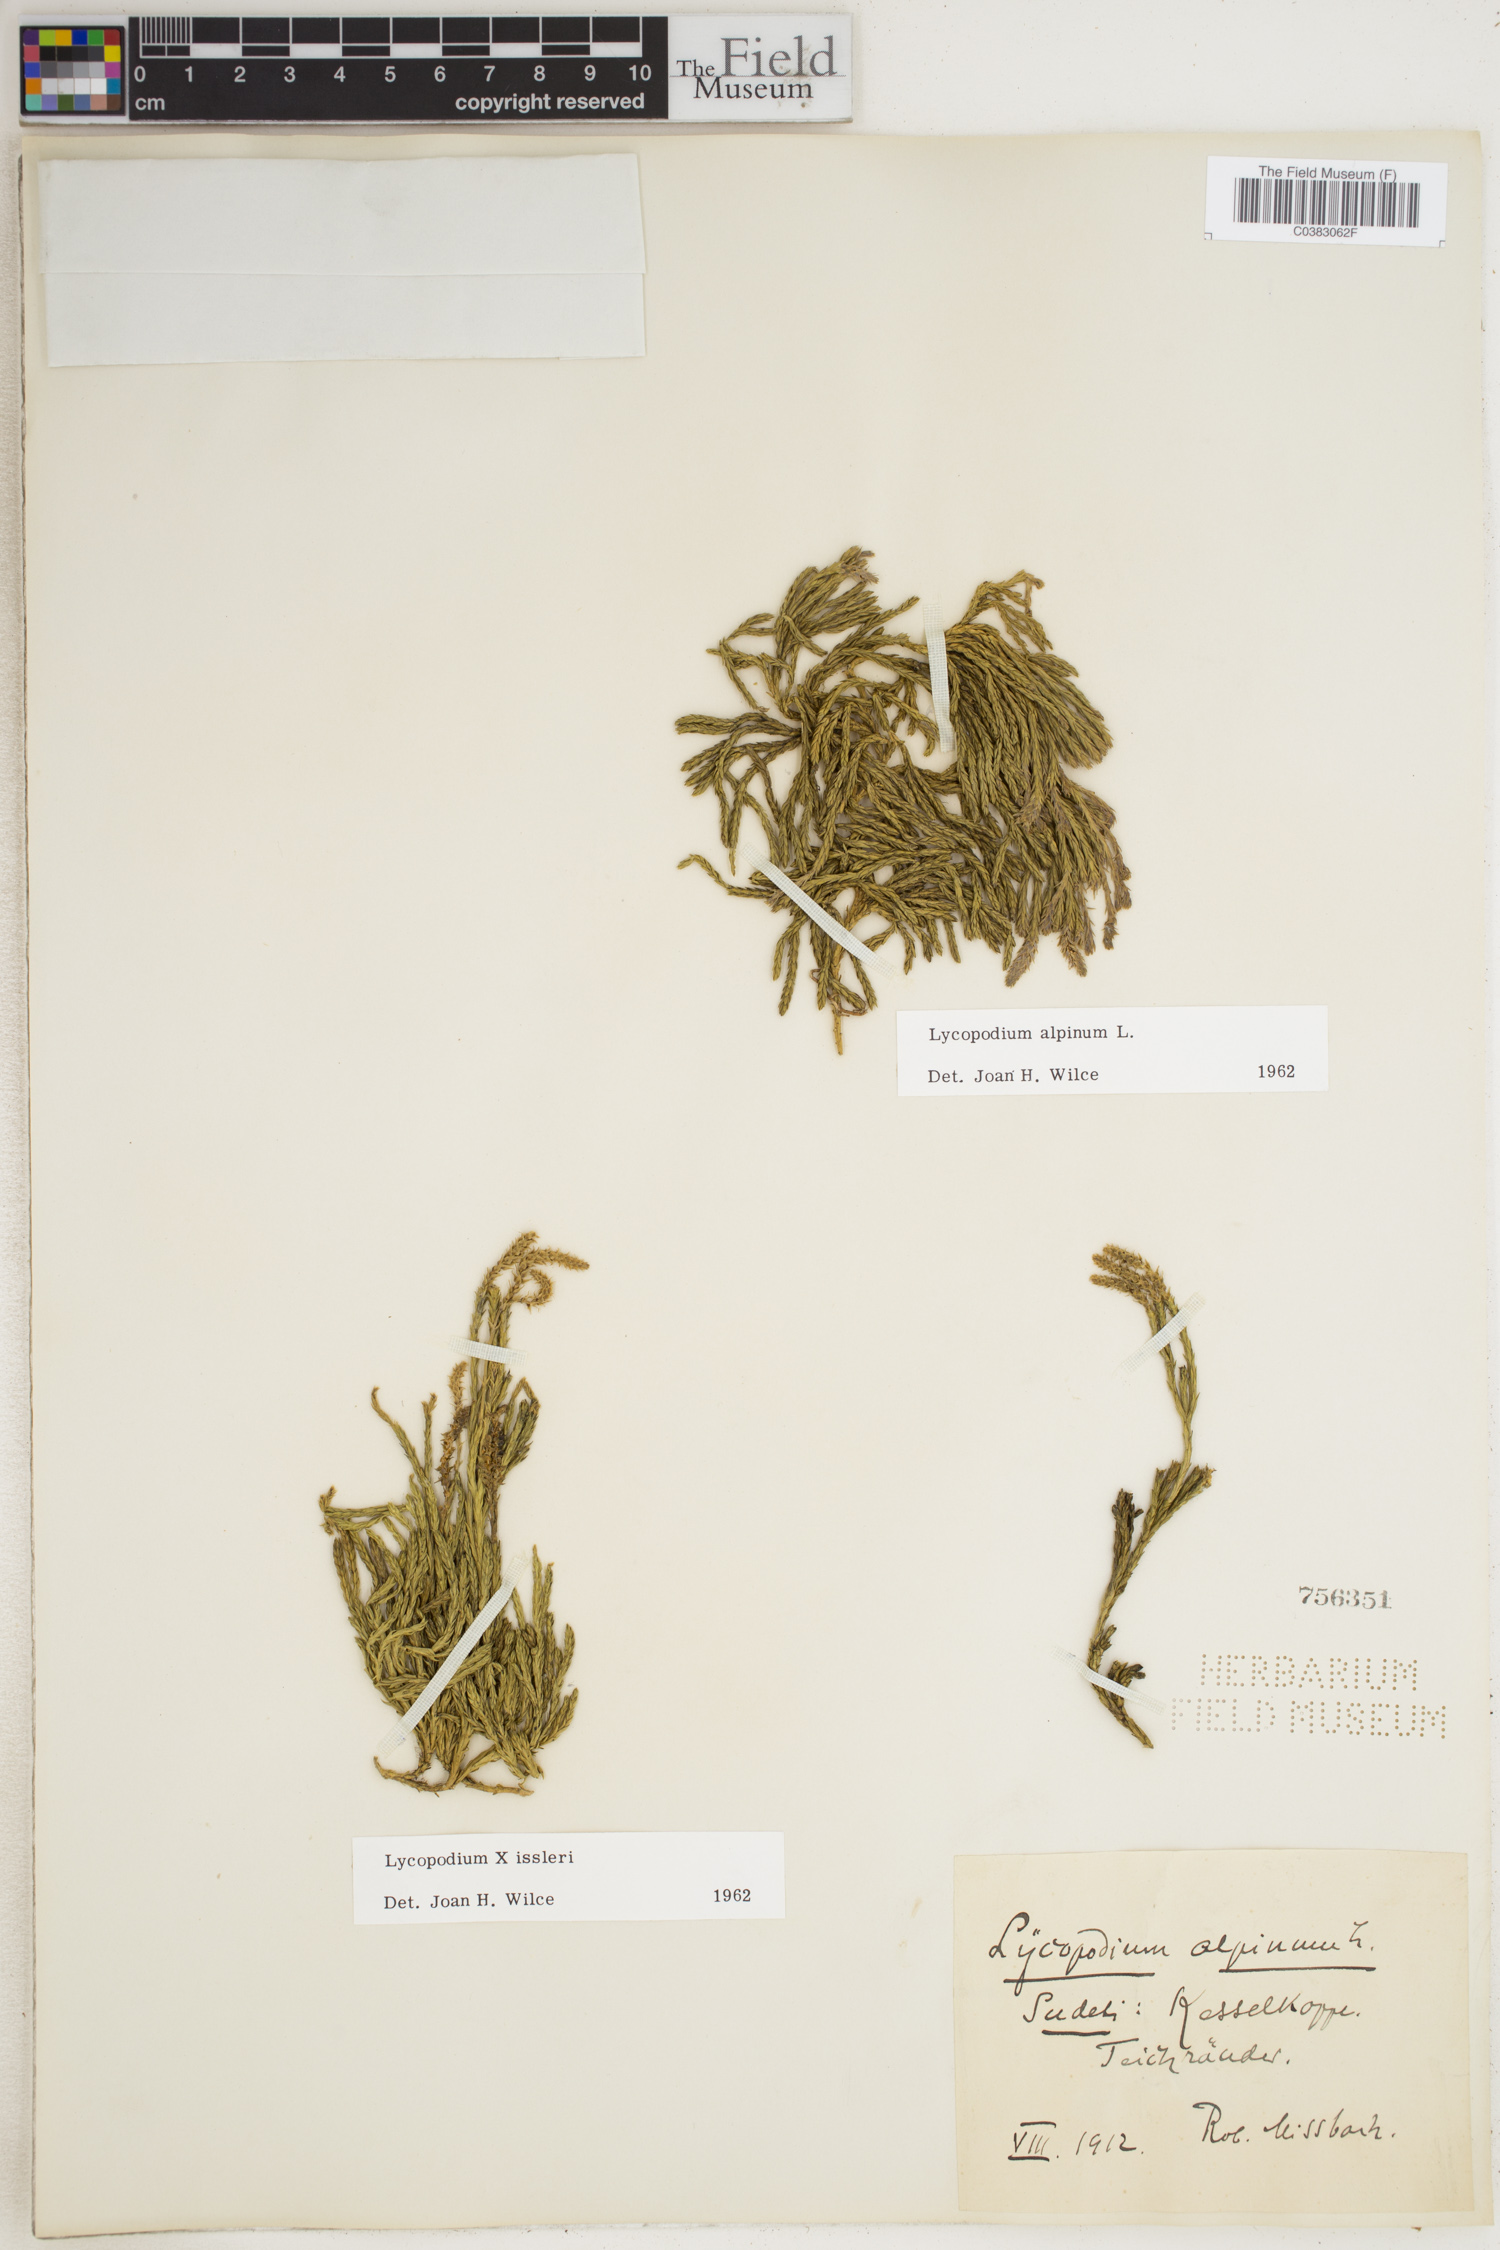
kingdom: Plantae
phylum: Tracheophyta
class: Lycopodiopsida
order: Lycopodiales
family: Lycopodiaceae
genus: Diphasiastrum
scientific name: Diphasiastrum alpinum
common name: Alpine clubmoss
